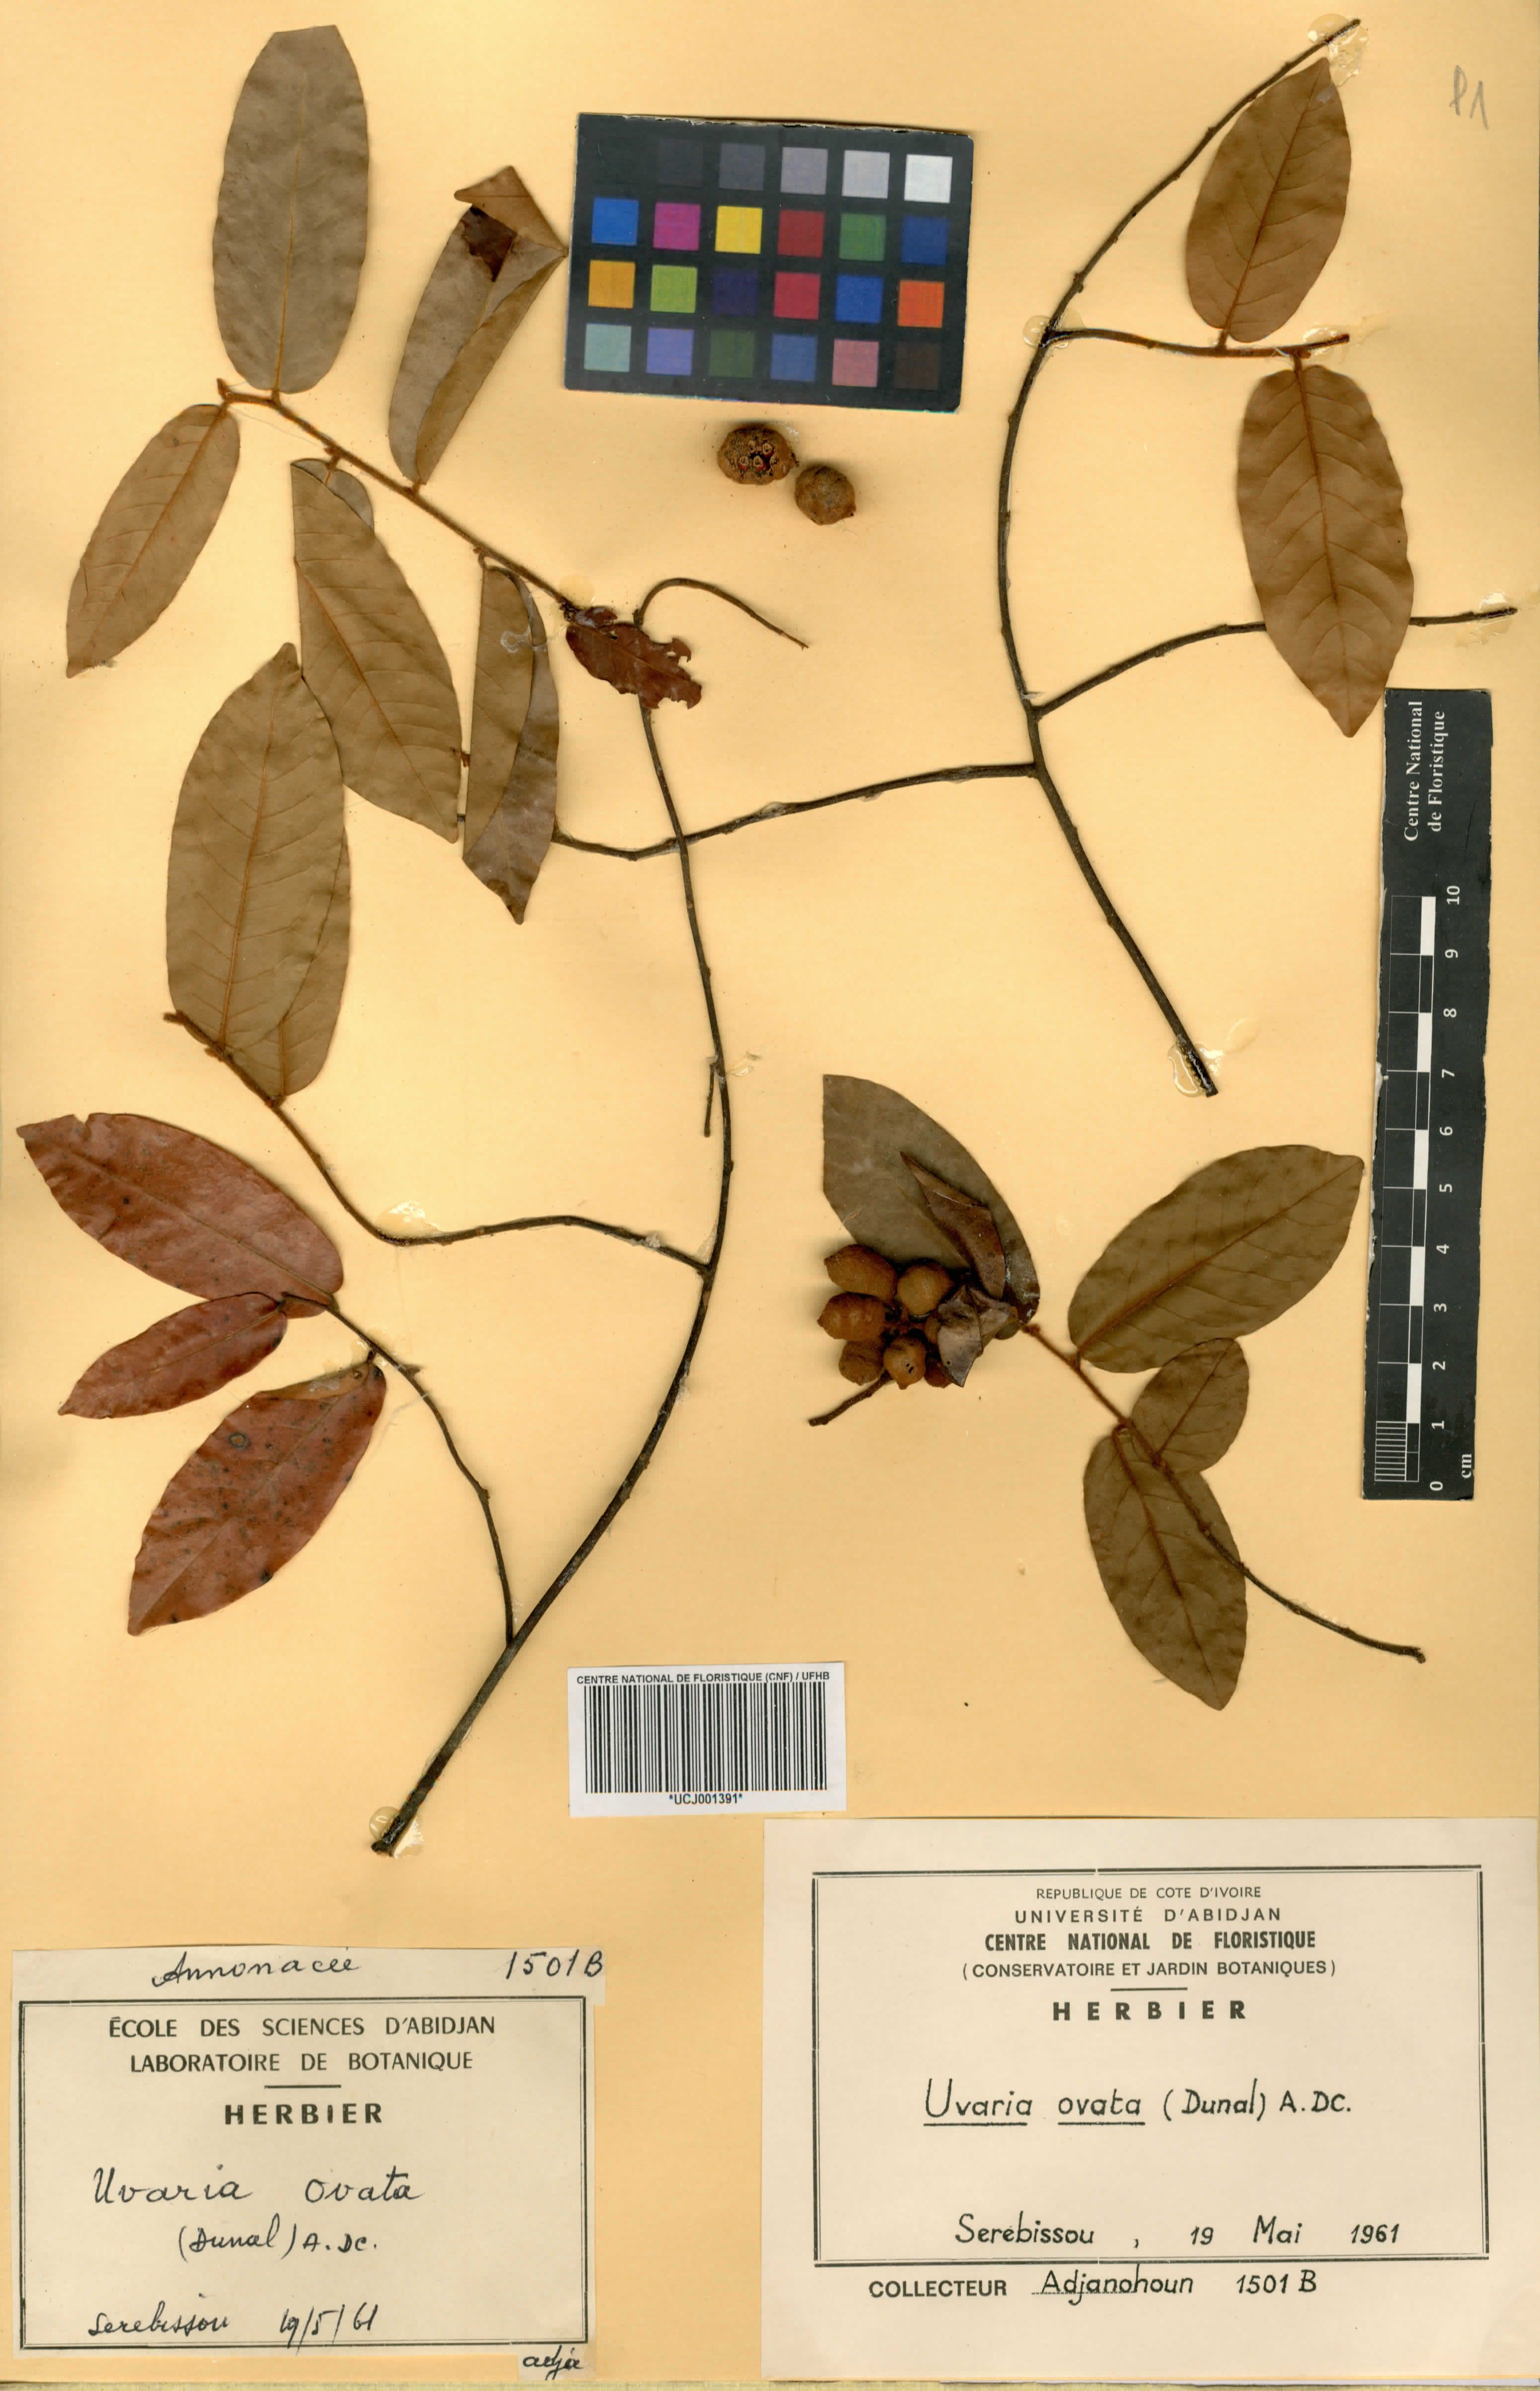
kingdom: Plantae
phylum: Tracheophyta
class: Magnoliopsida
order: Magnoliales
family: Annonaceae
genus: Uvaria
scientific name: Uvaria ovata
